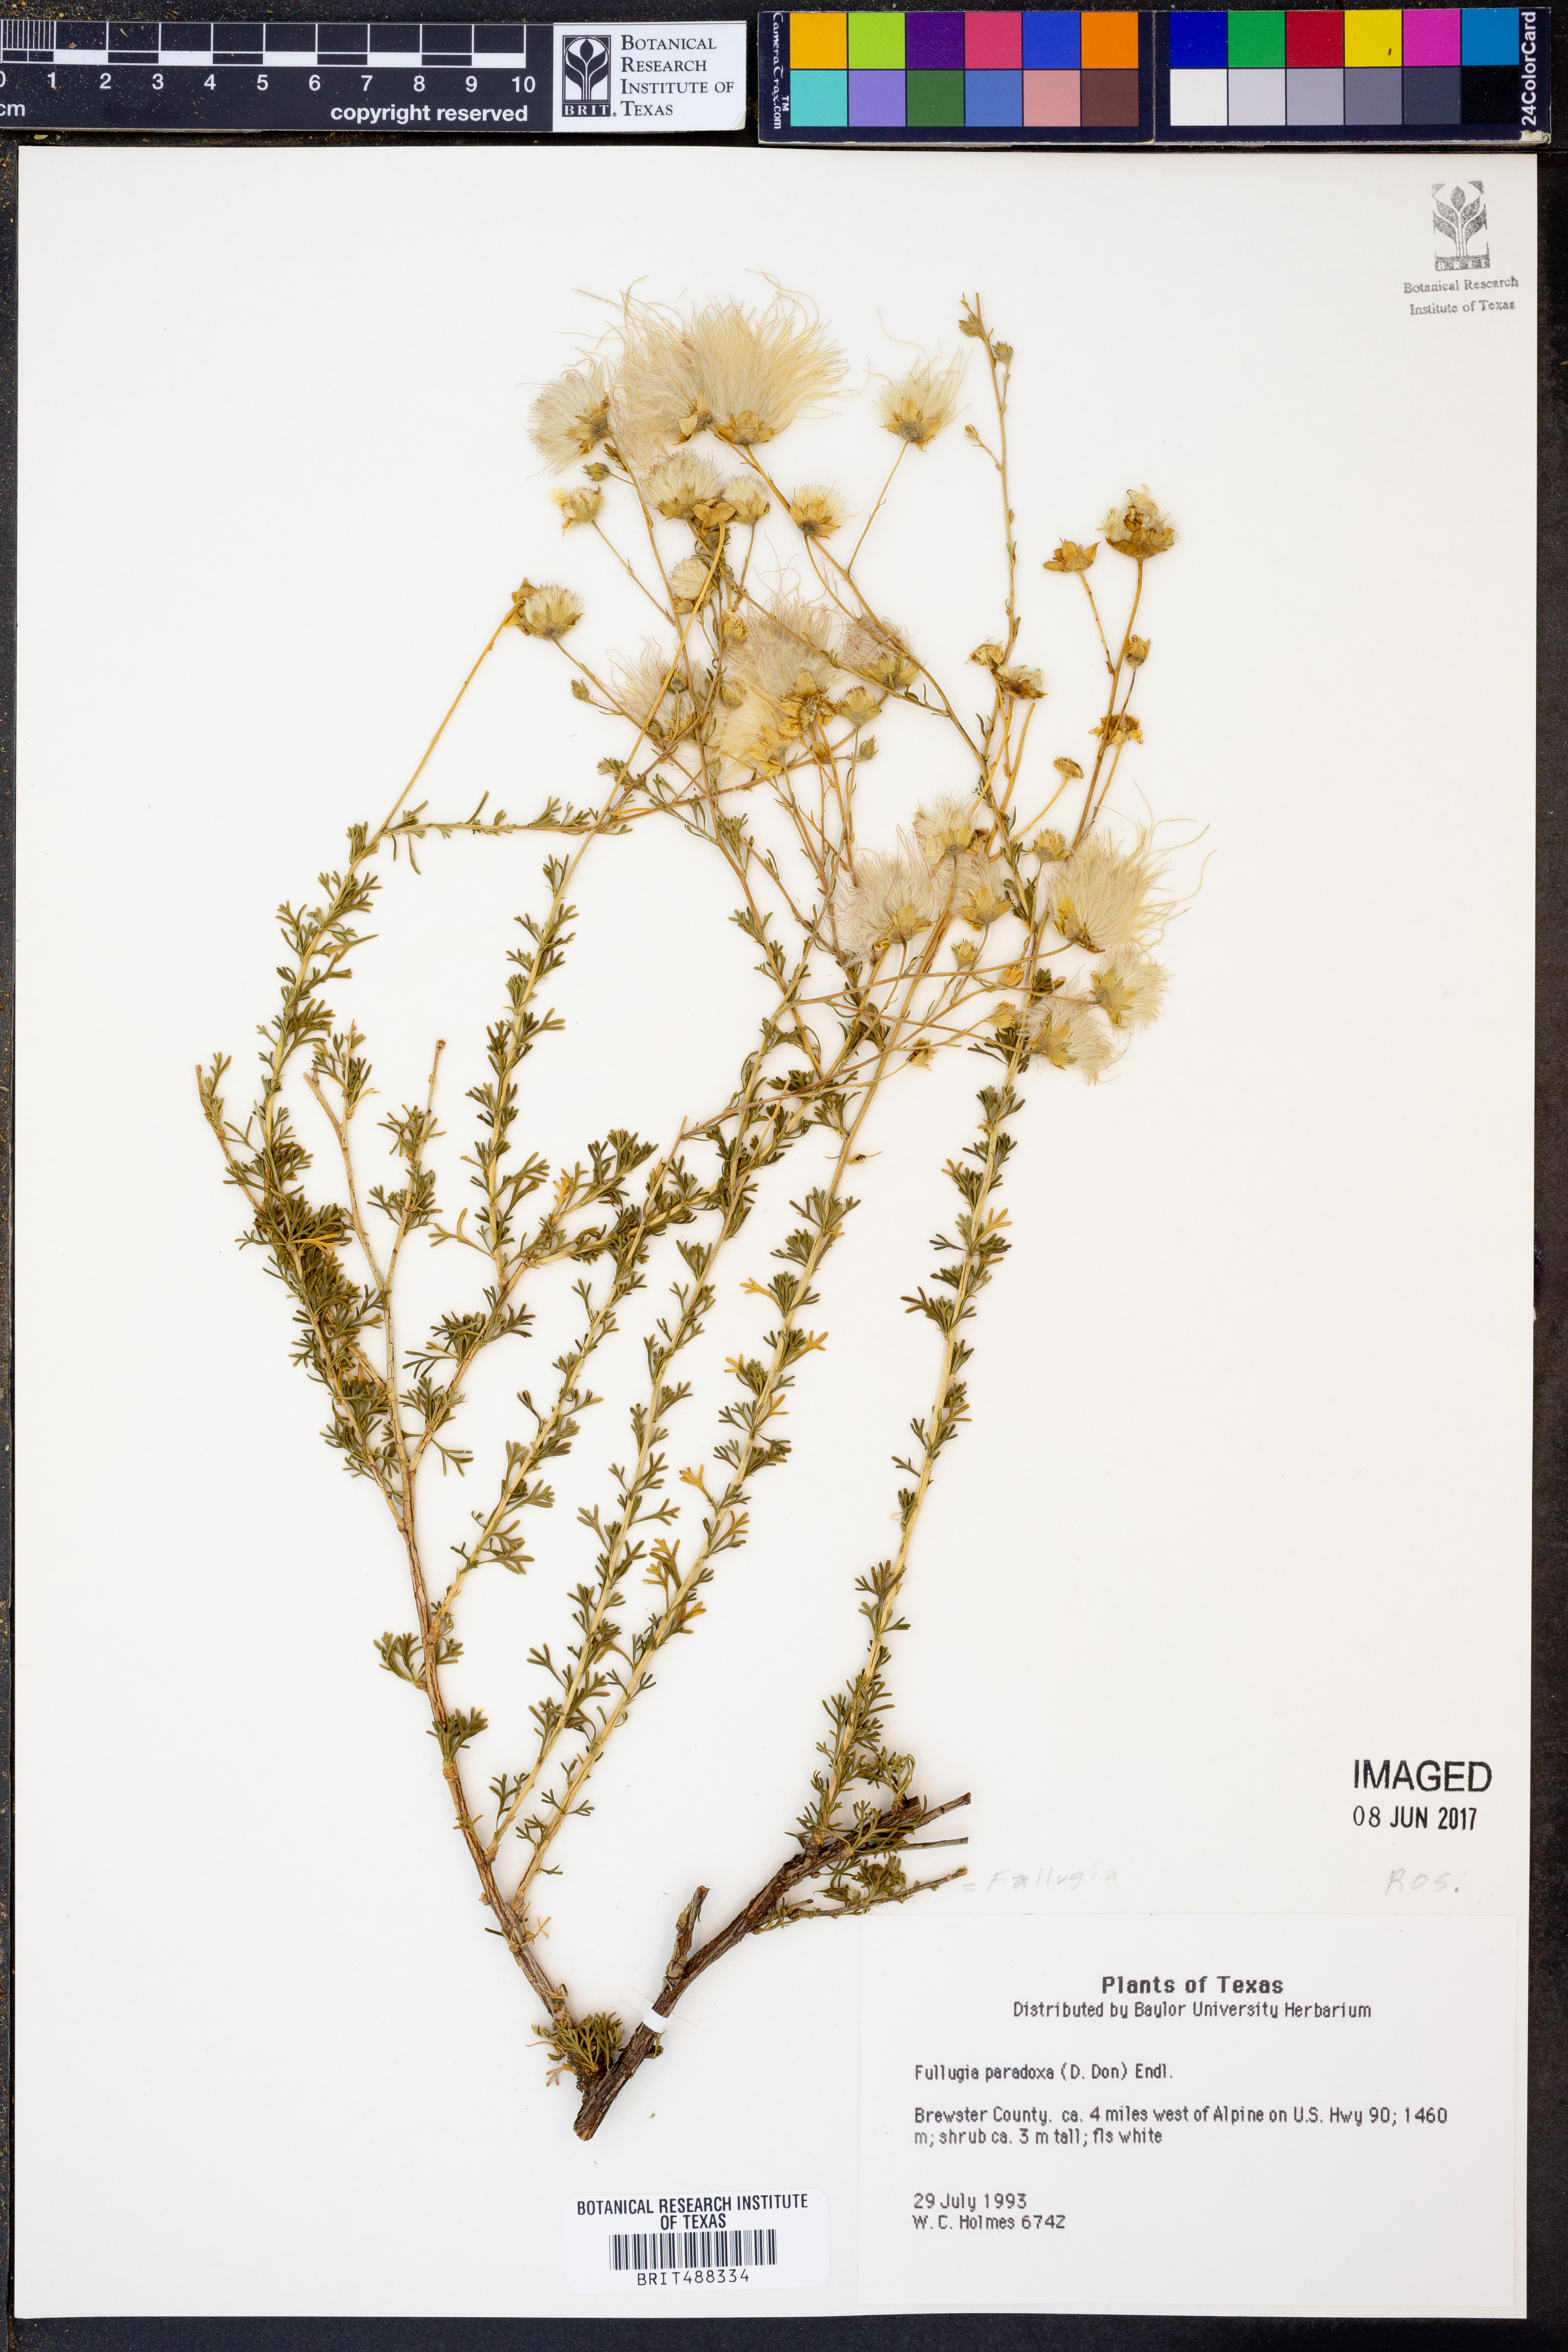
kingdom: Plantae
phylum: Tracheophyta
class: Magnoliopsida
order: Rosales
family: Rosaceae
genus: Fallugia
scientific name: Fallugia paradoxa
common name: Apache-plume
